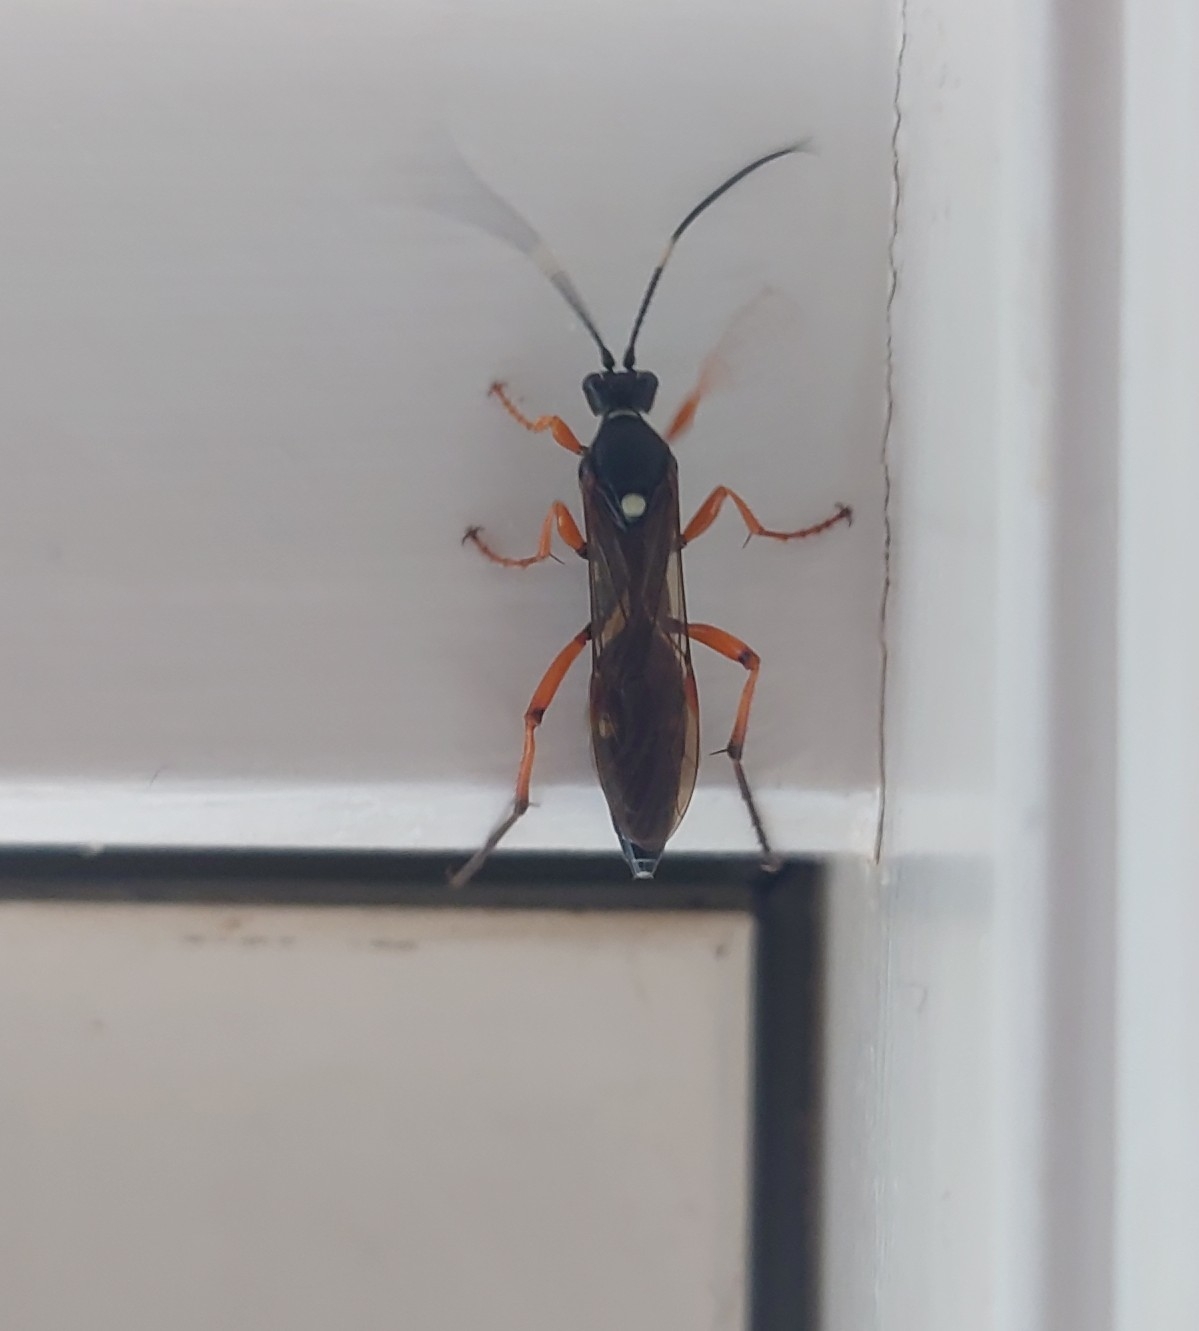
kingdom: Animalia
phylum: Arthropoda
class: Insecta
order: Hymenoptera
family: Ichneumonidae
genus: Diphyus
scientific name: Diphyus quadripunctorius
